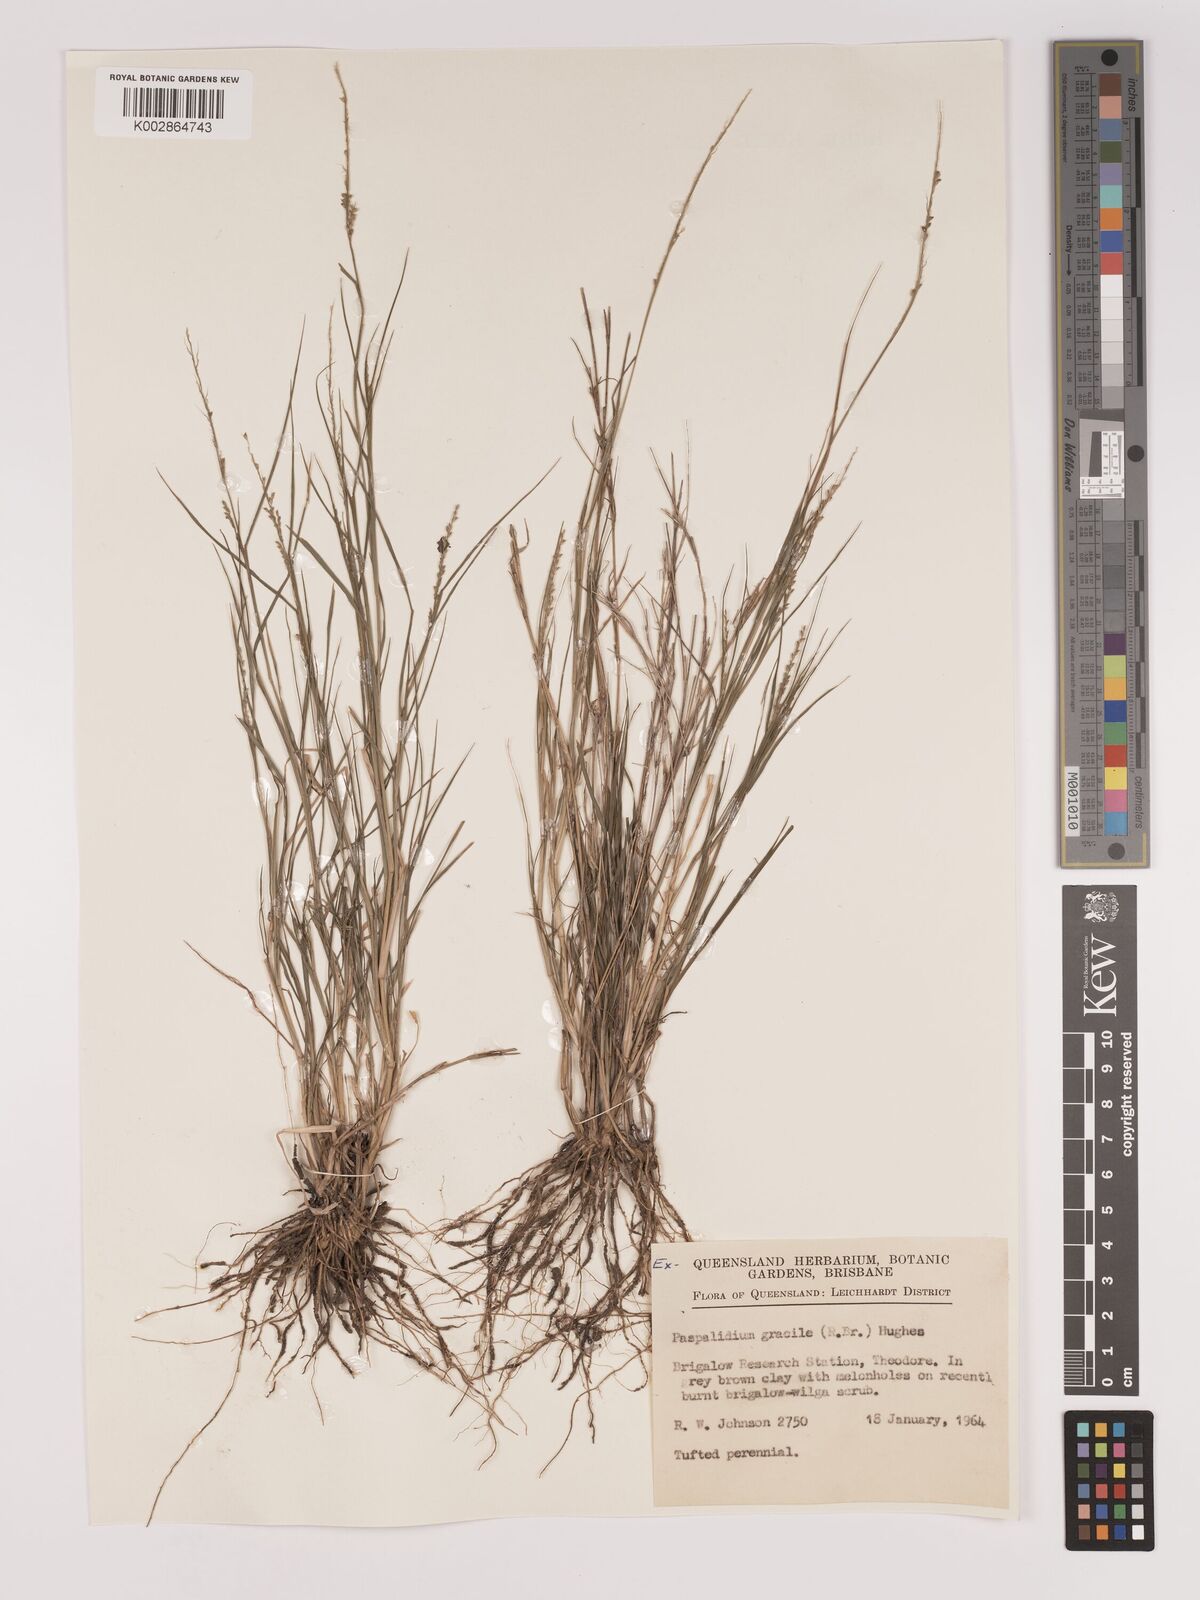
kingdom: Plantae
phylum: Tracheophyta
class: Liliopsida
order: Poales
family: Poaceae
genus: Setaria
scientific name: Setaria brownii
